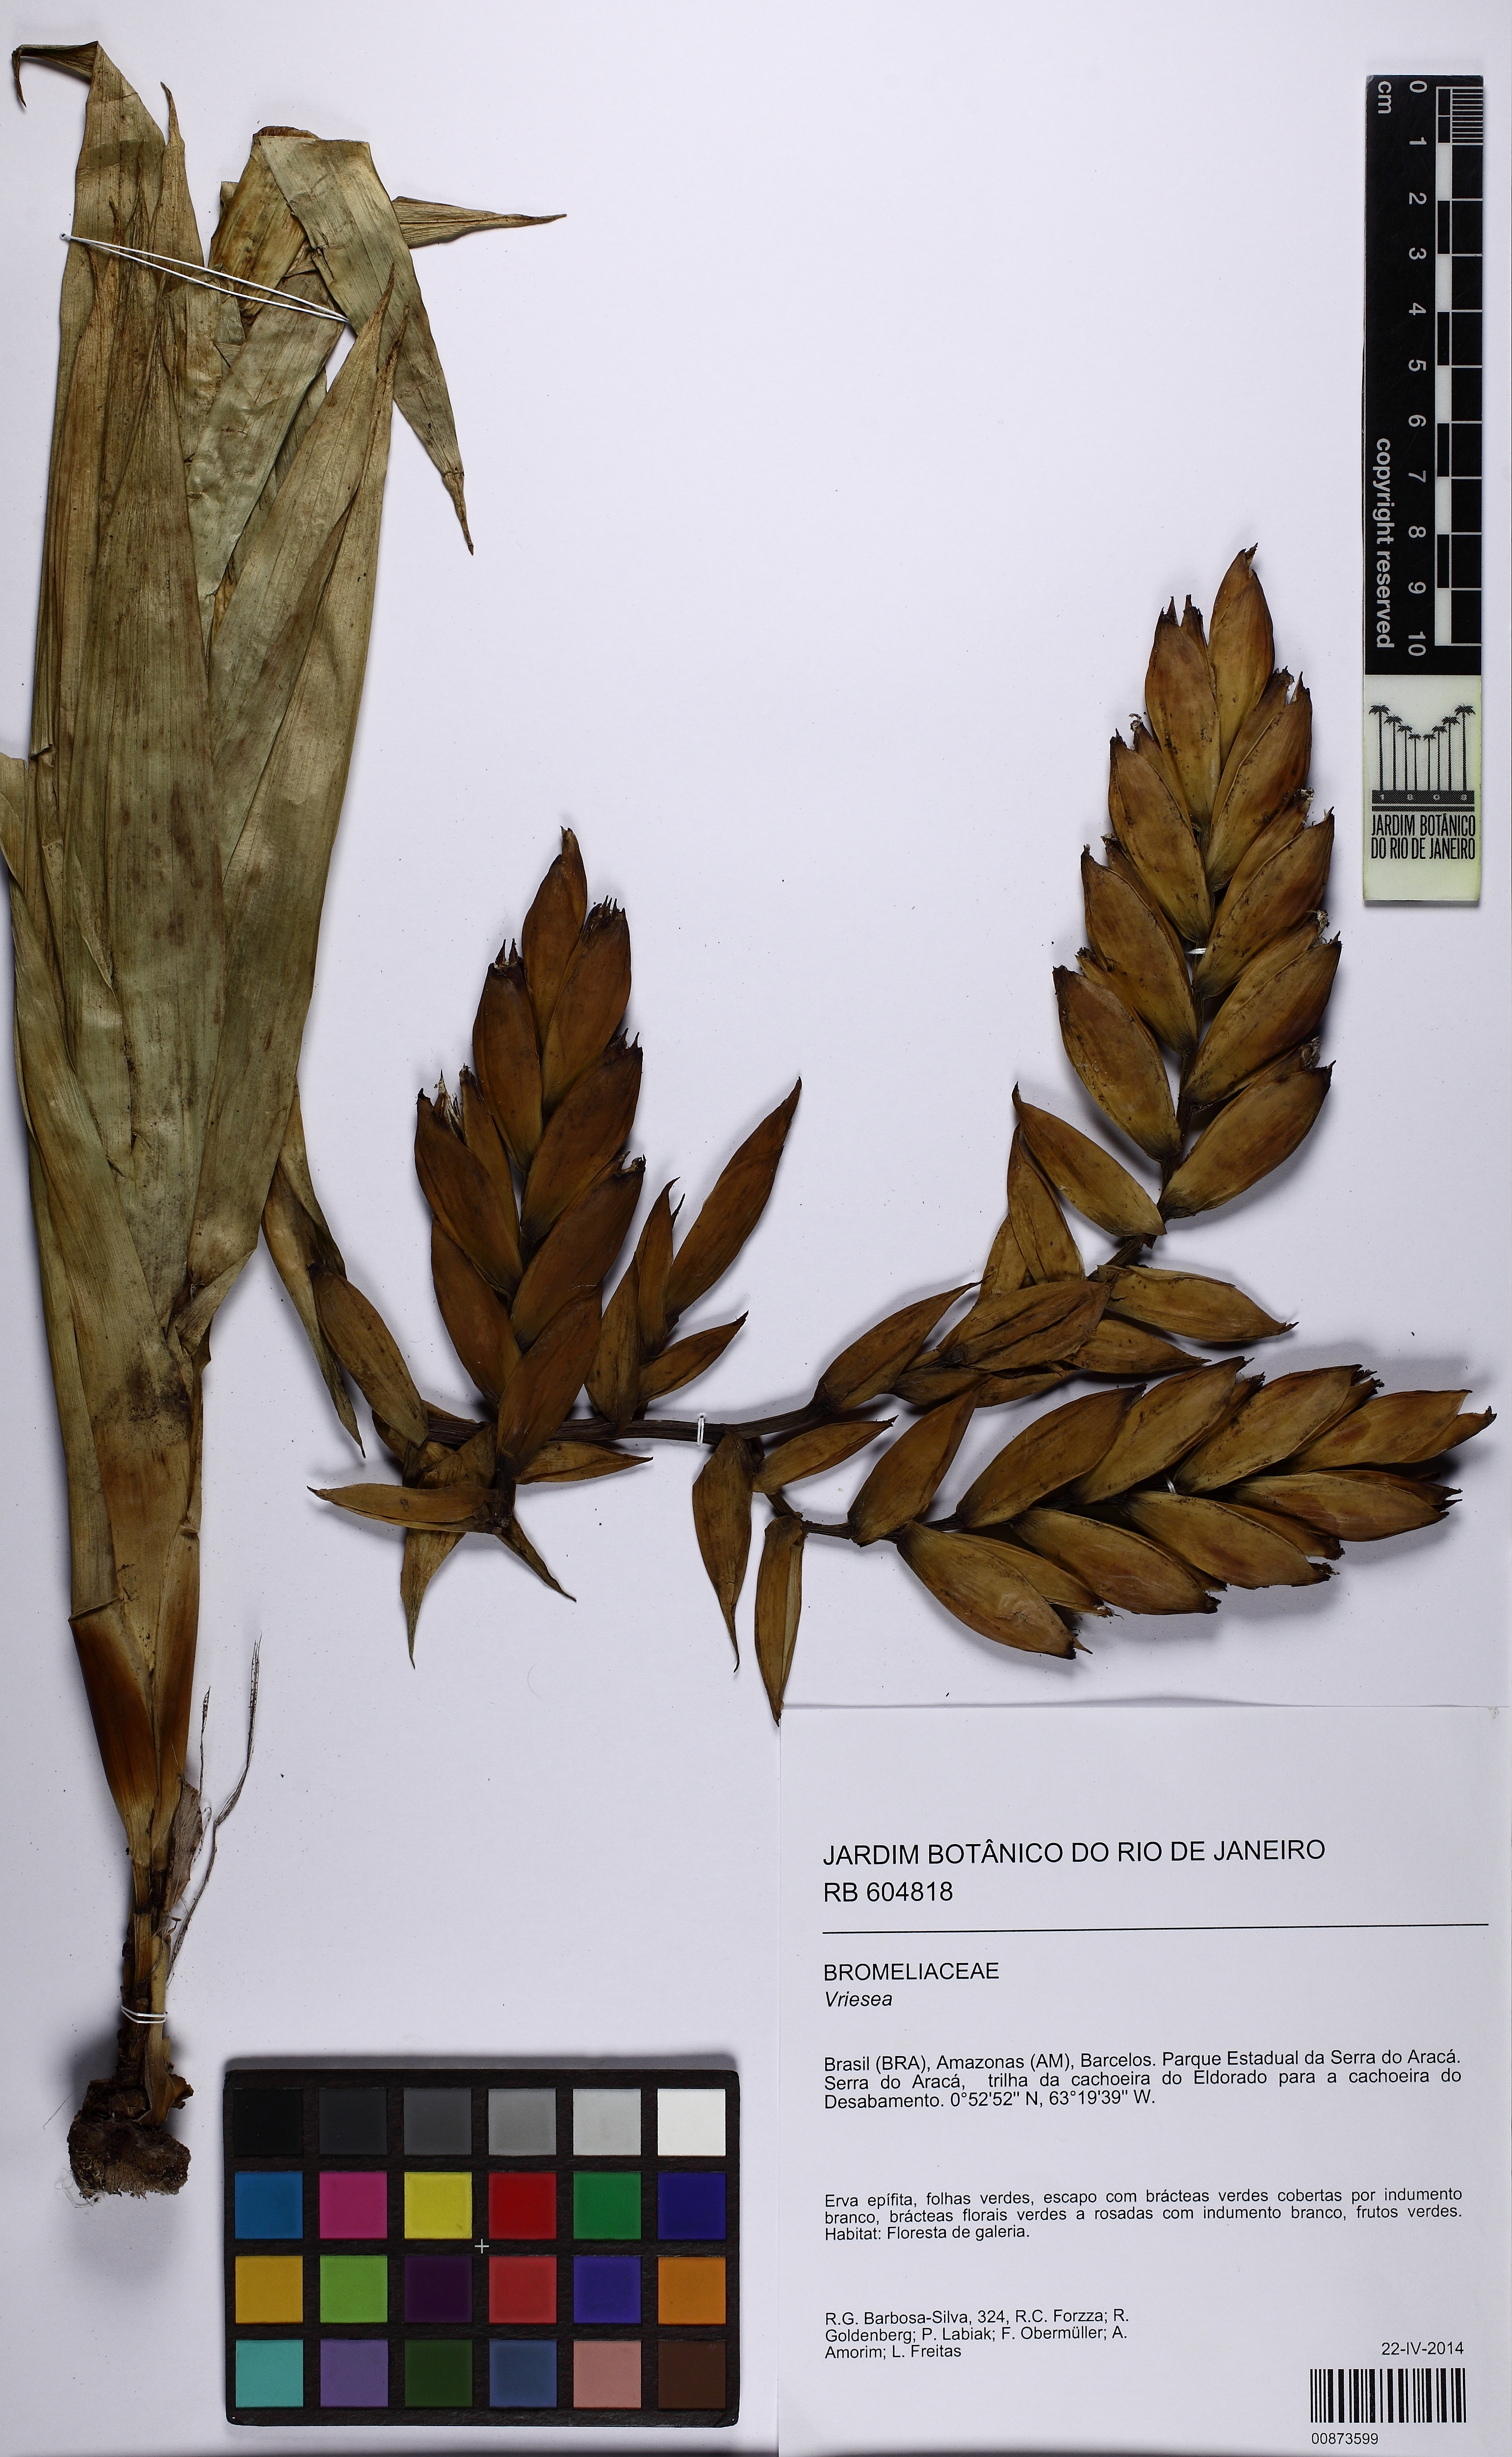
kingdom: Plantae
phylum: Tracheophyta
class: Liliopsida
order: Poales
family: Bromeliaceae
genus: Vriesea
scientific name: Vriesea
